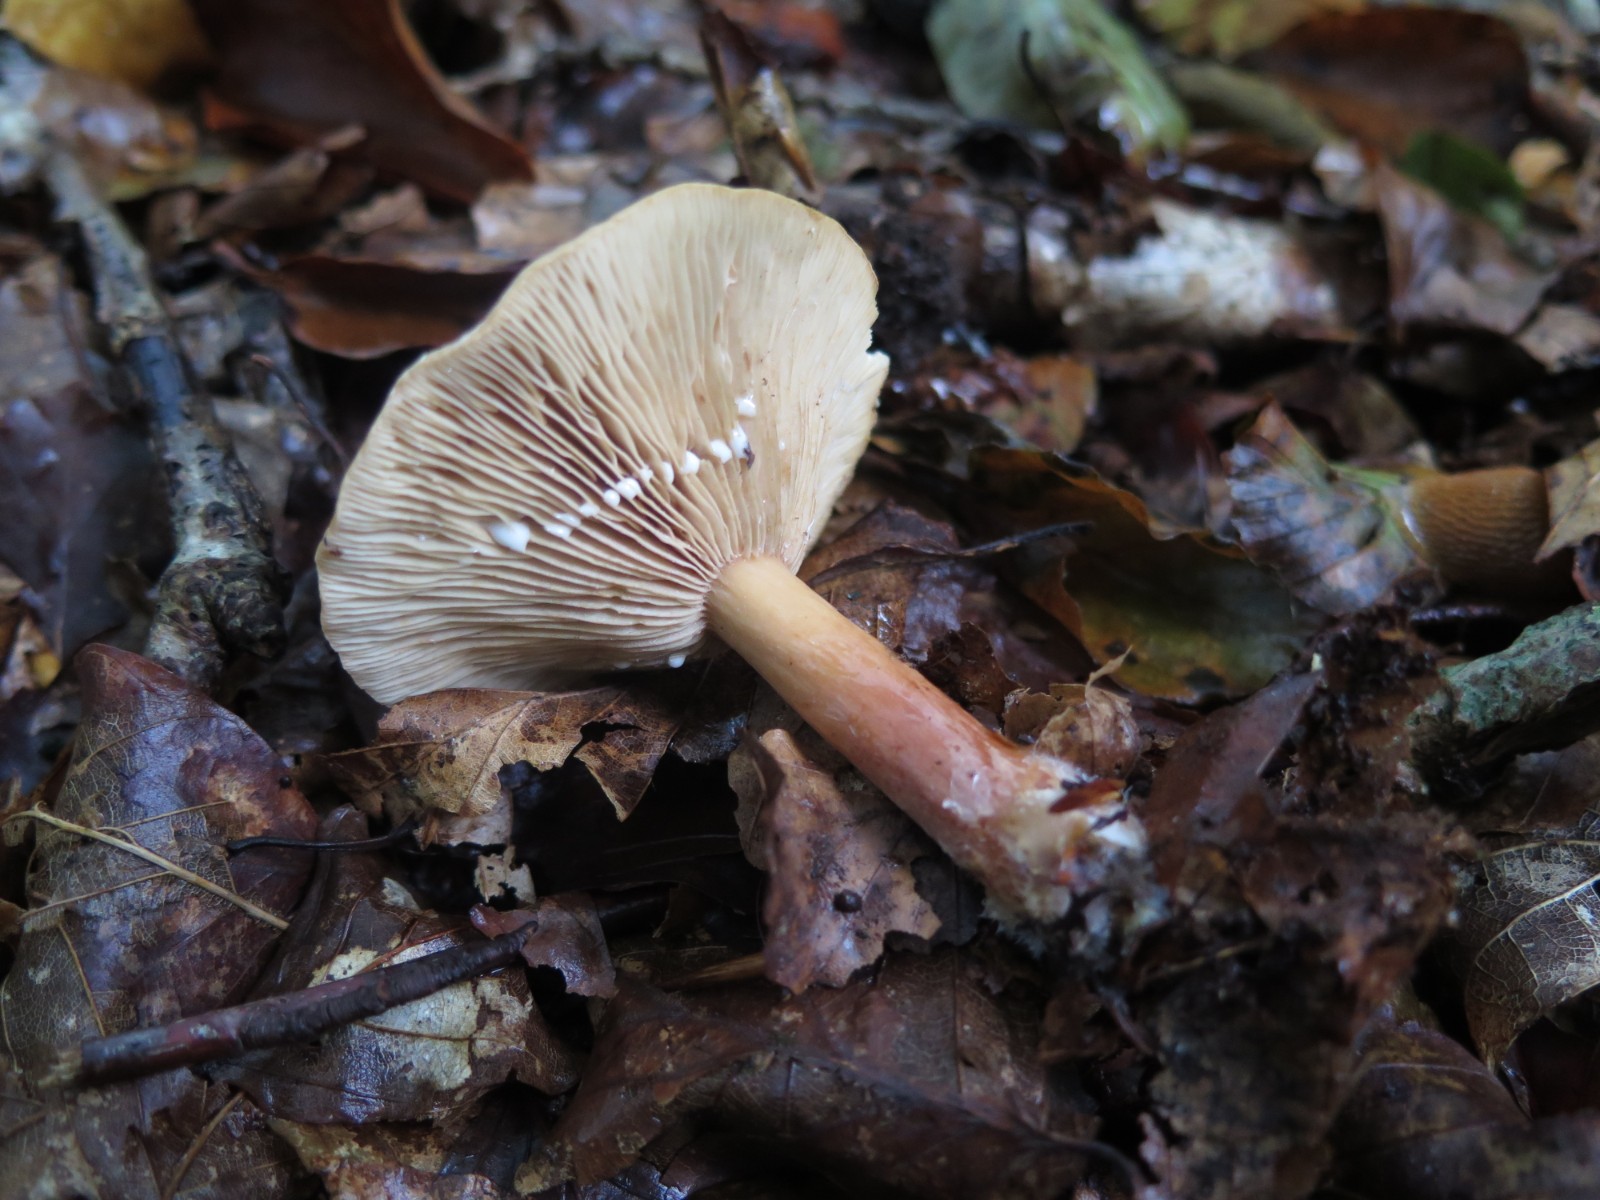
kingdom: Fungi
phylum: Basidiomycota
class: Agaricomycetes
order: Russulales
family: Russulaceae
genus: Lactarius
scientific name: Lactarius camphoratus
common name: kamfer-mælkehat
